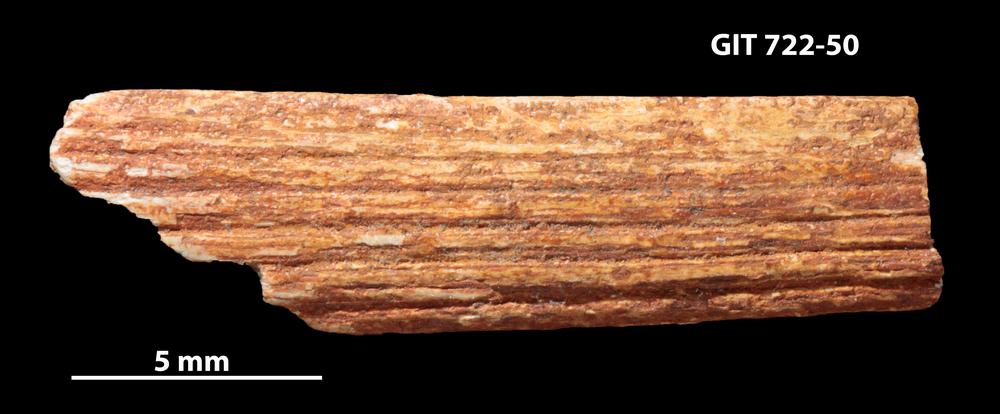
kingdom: Animalia
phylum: Chordata
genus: Devononchus
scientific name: Devononchus concinnus
